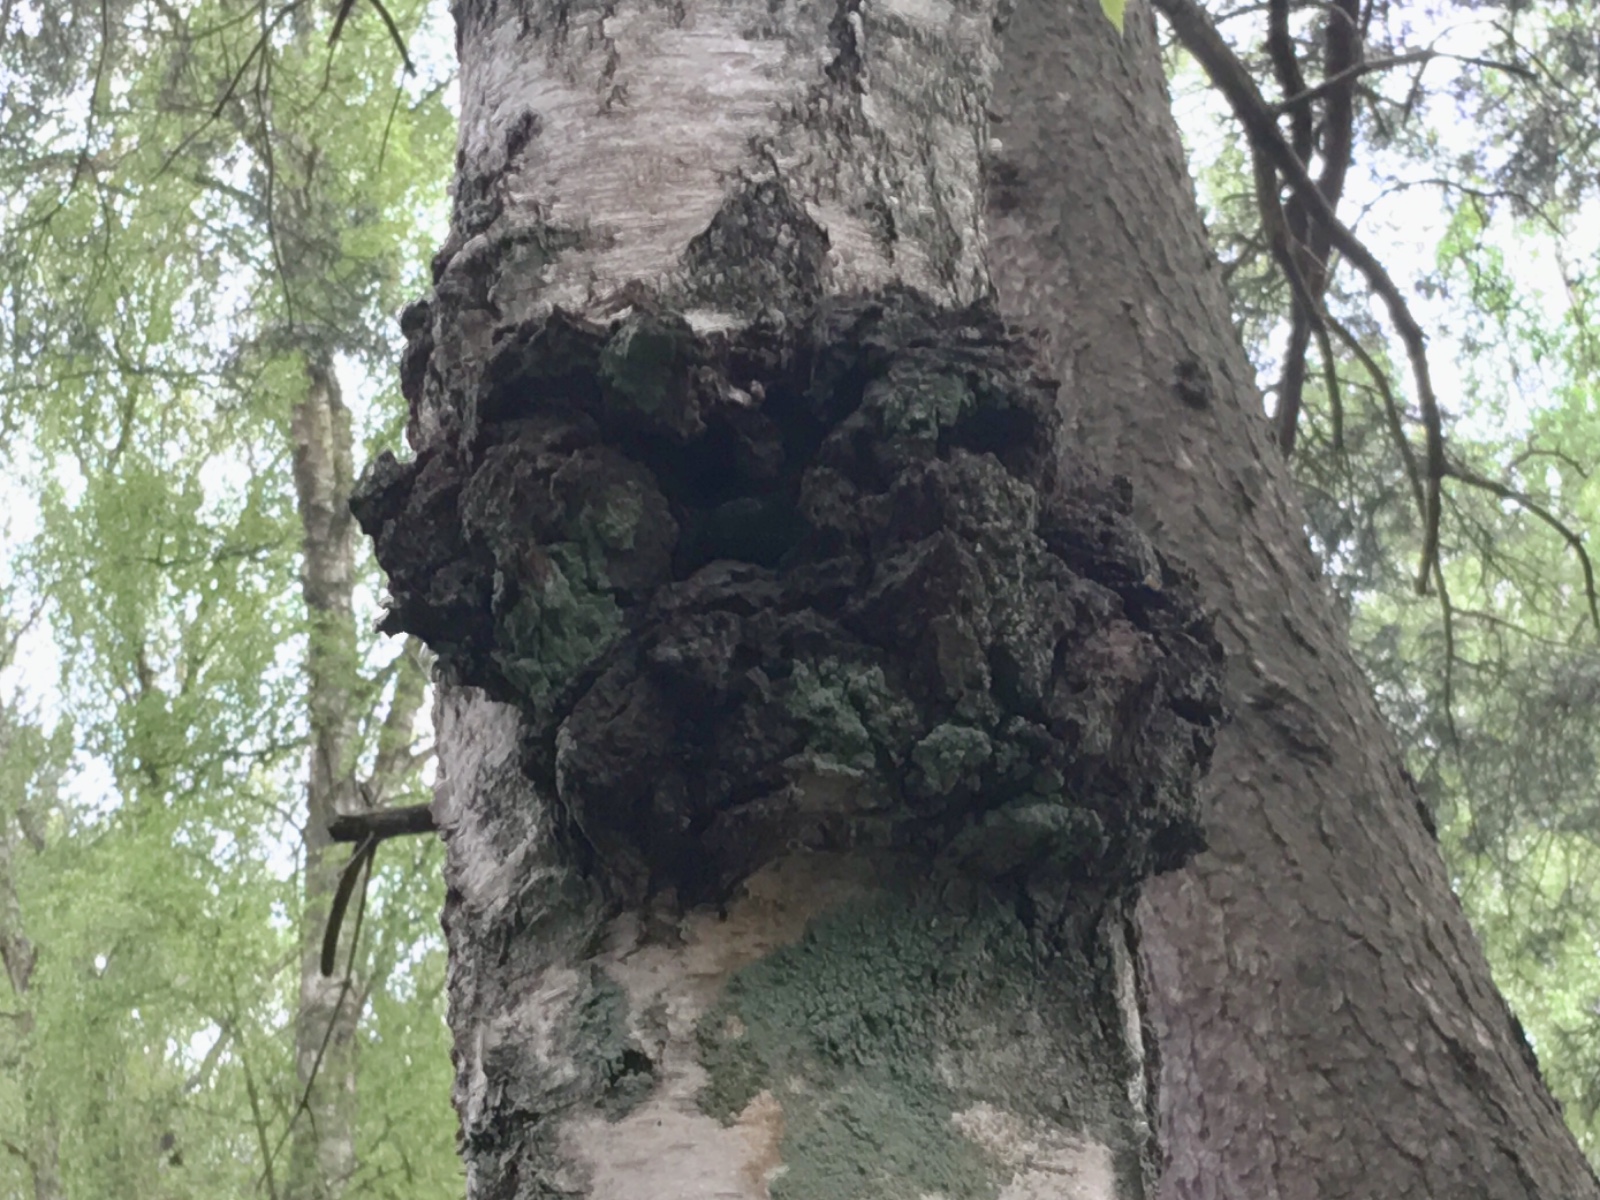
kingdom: Fungi
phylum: Basidiomycota
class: Agaricomycetes
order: Hymenochaetales
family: Hymenochaetaceae
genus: Inonotus
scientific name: Inonotus obliquus
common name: birke-spejlporesvamp
